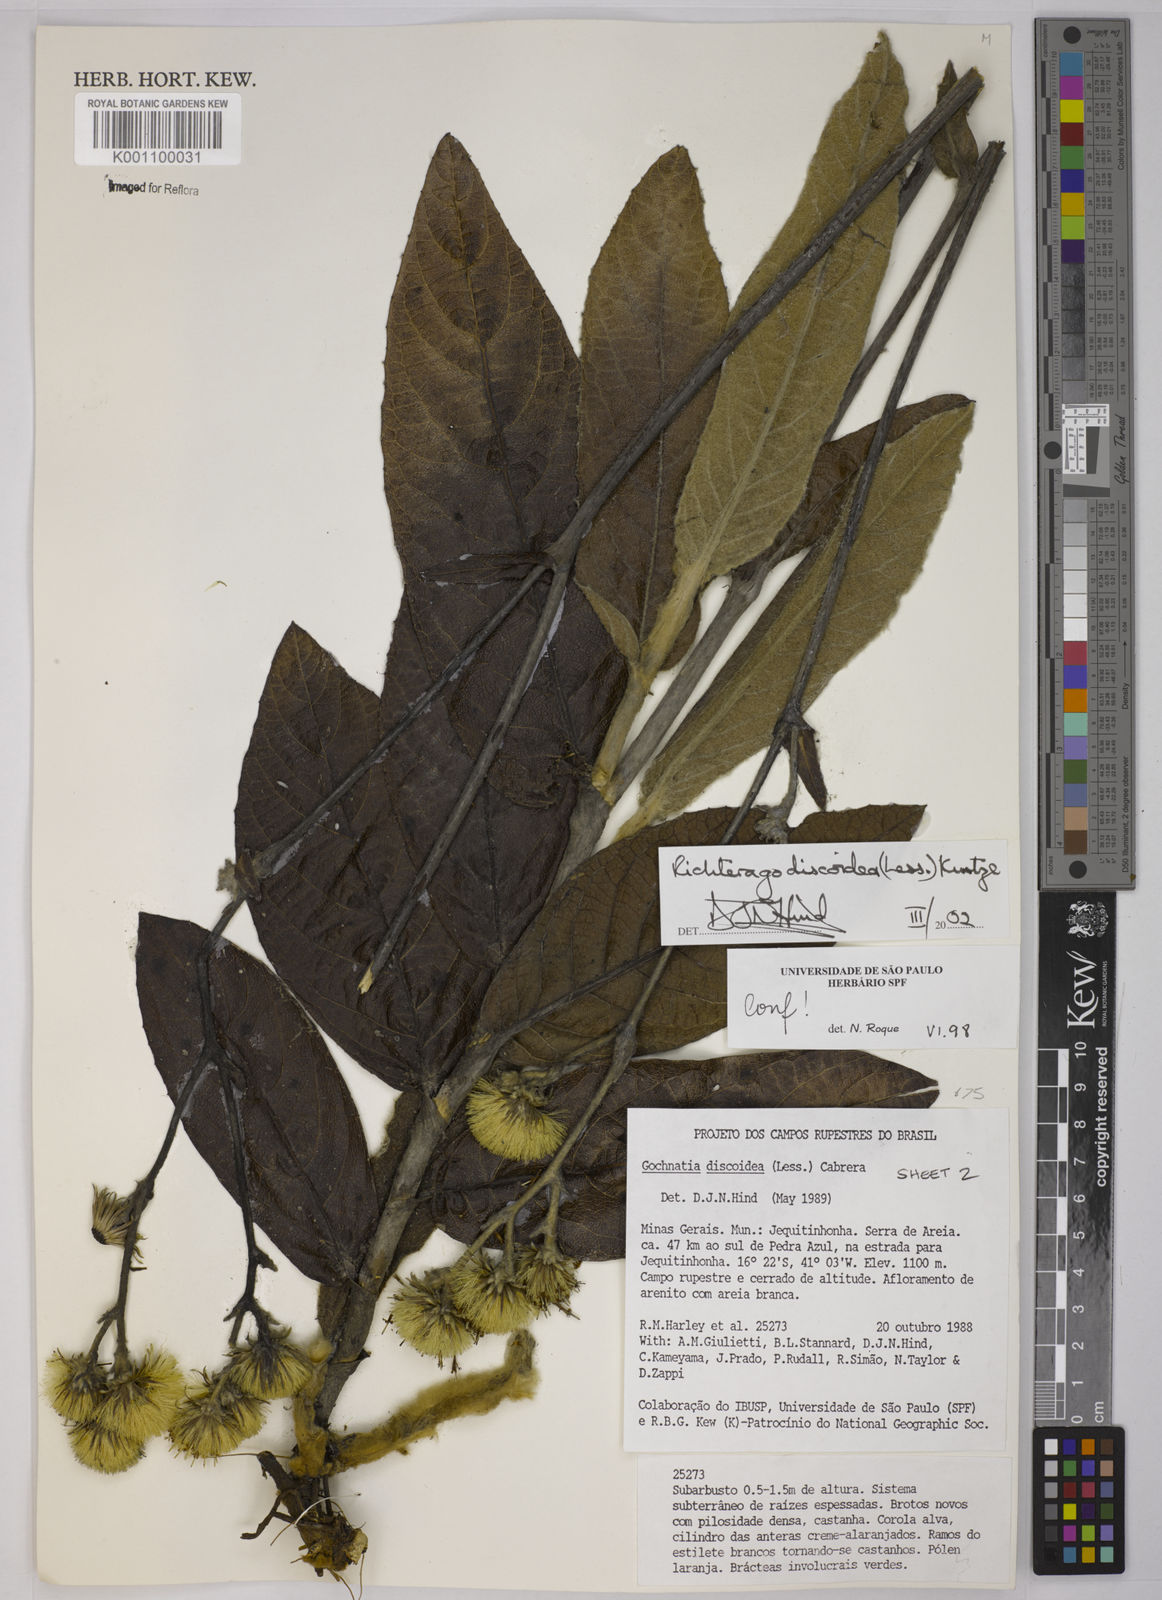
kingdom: Plantae
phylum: Tracheophyta
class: Magnoliopsida
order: Asterales
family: Asteraceae
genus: Richterago
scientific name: Richterago discoidea
